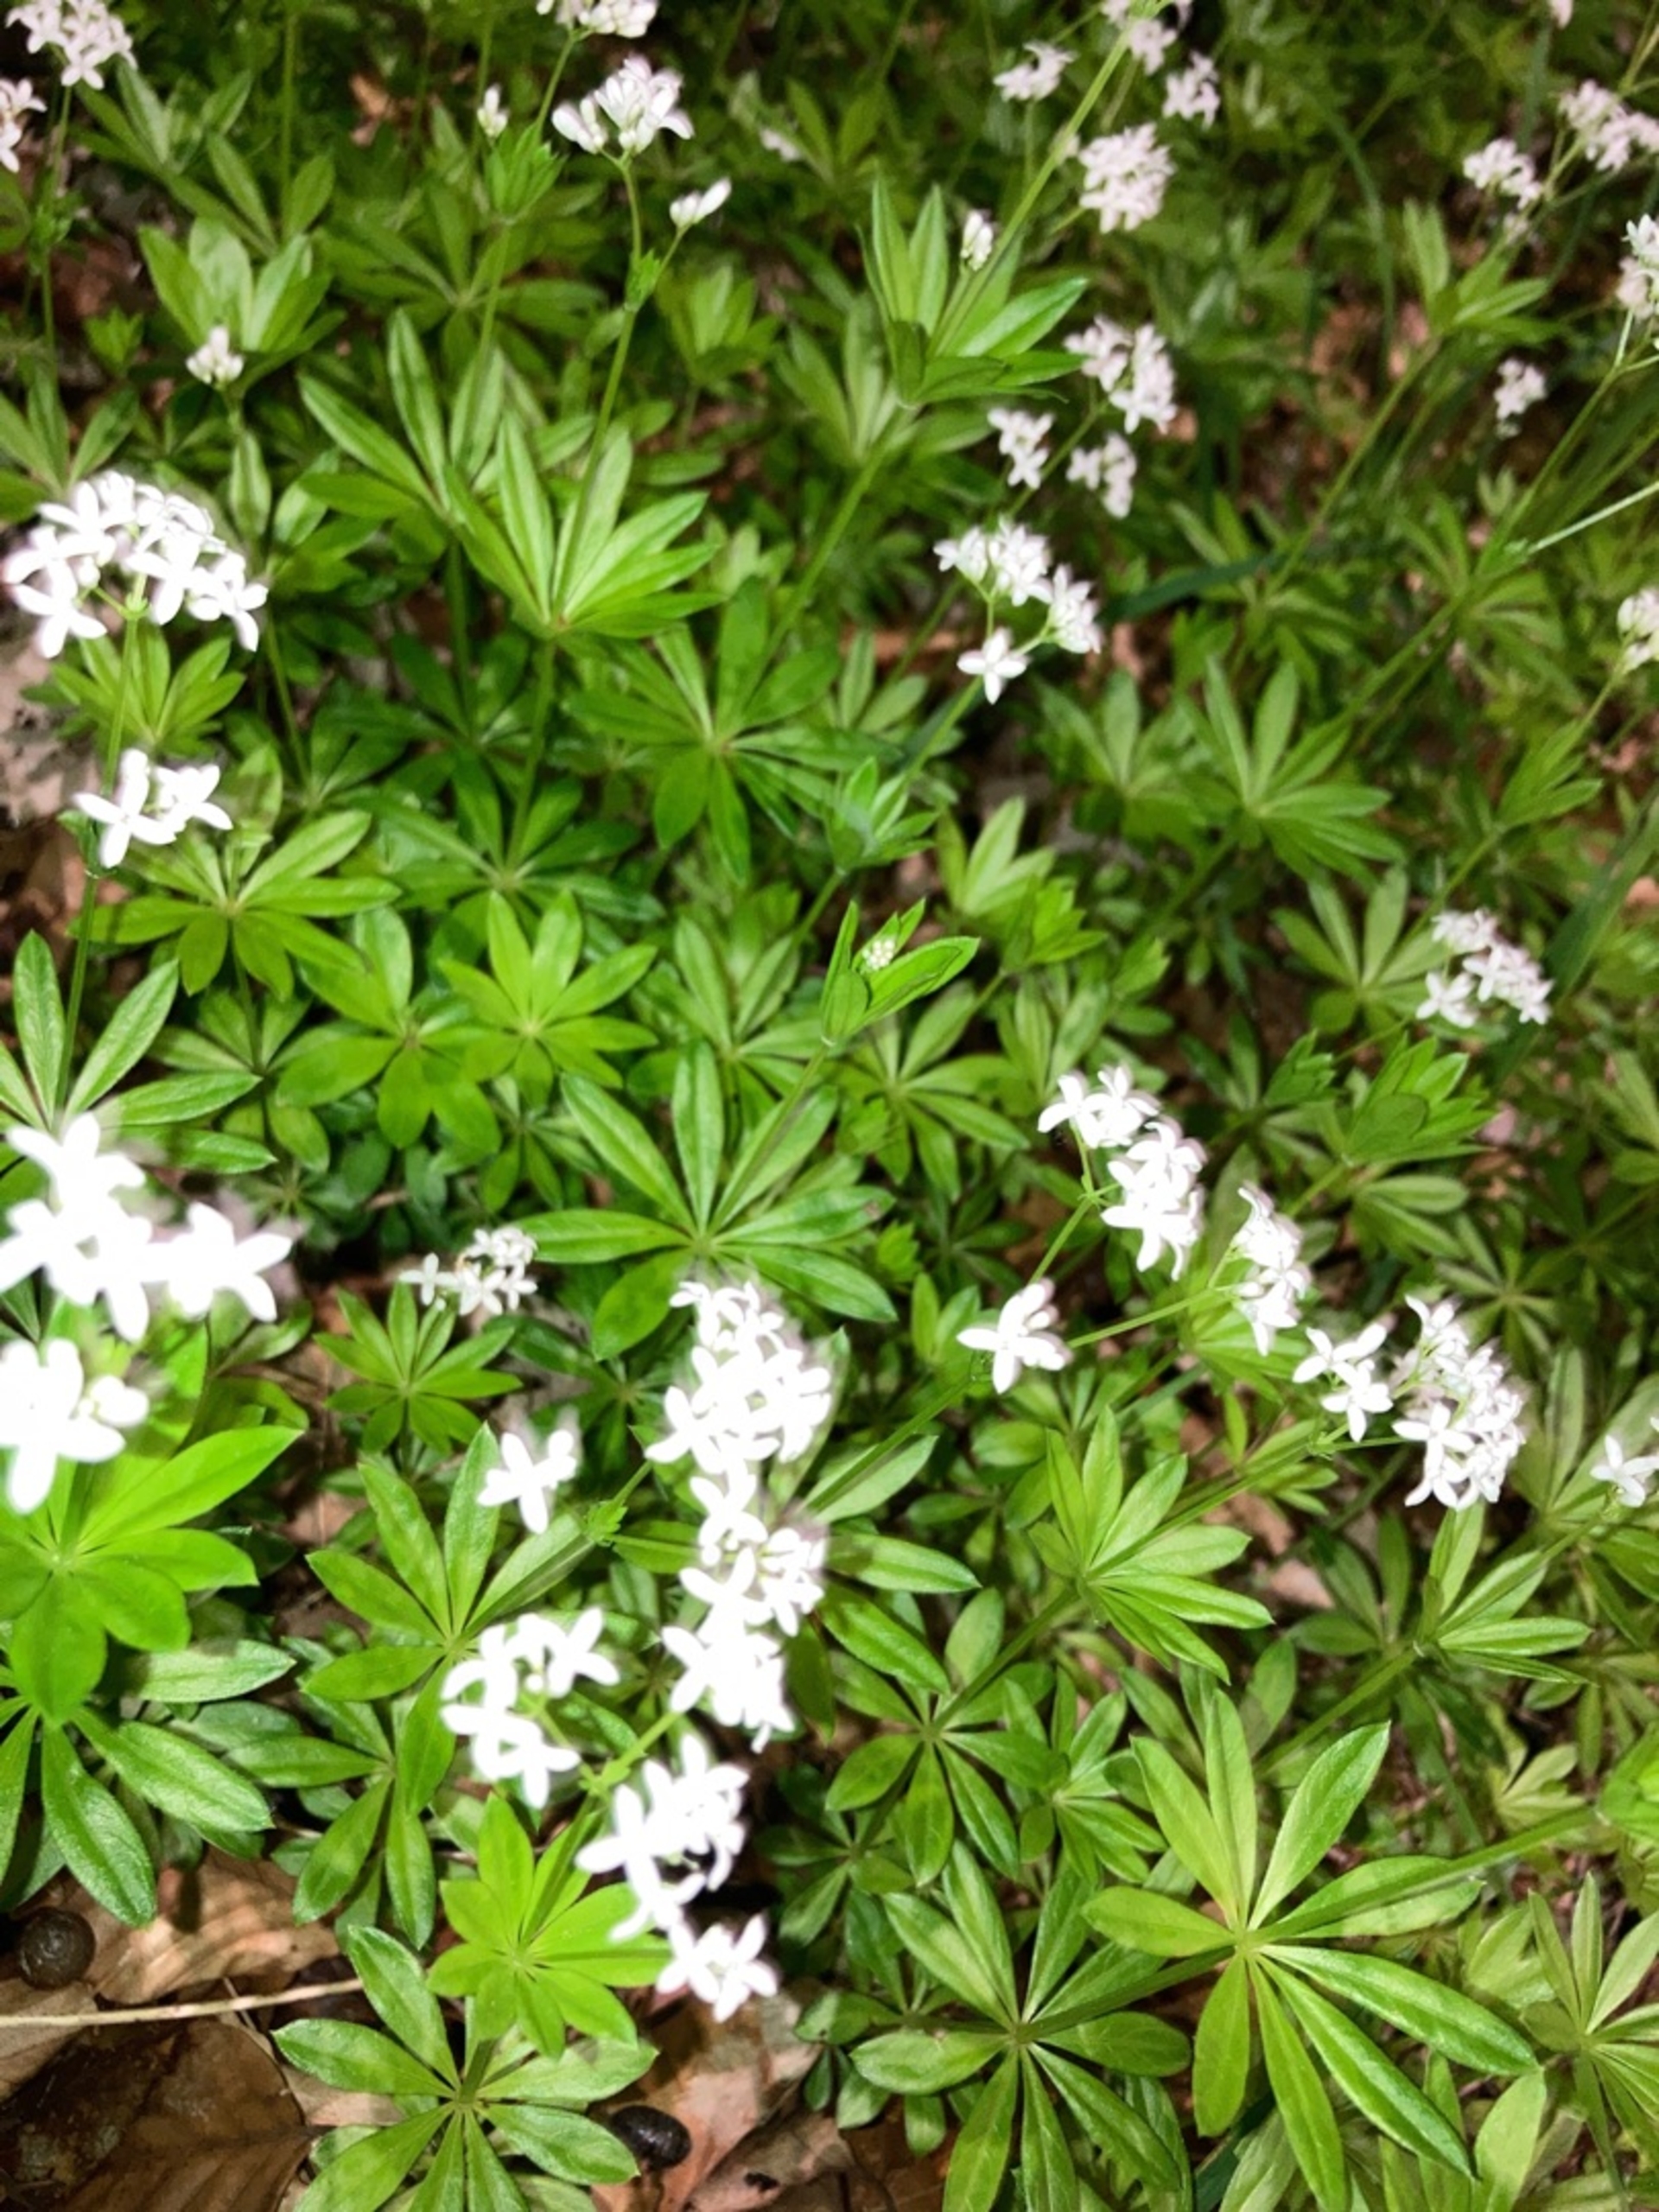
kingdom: Plantae
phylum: Tracheophyta
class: Magnoliopsida
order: Gentianales
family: Rubiaceae
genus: Galium
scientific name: Galium odoratum
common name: Skovmærke
